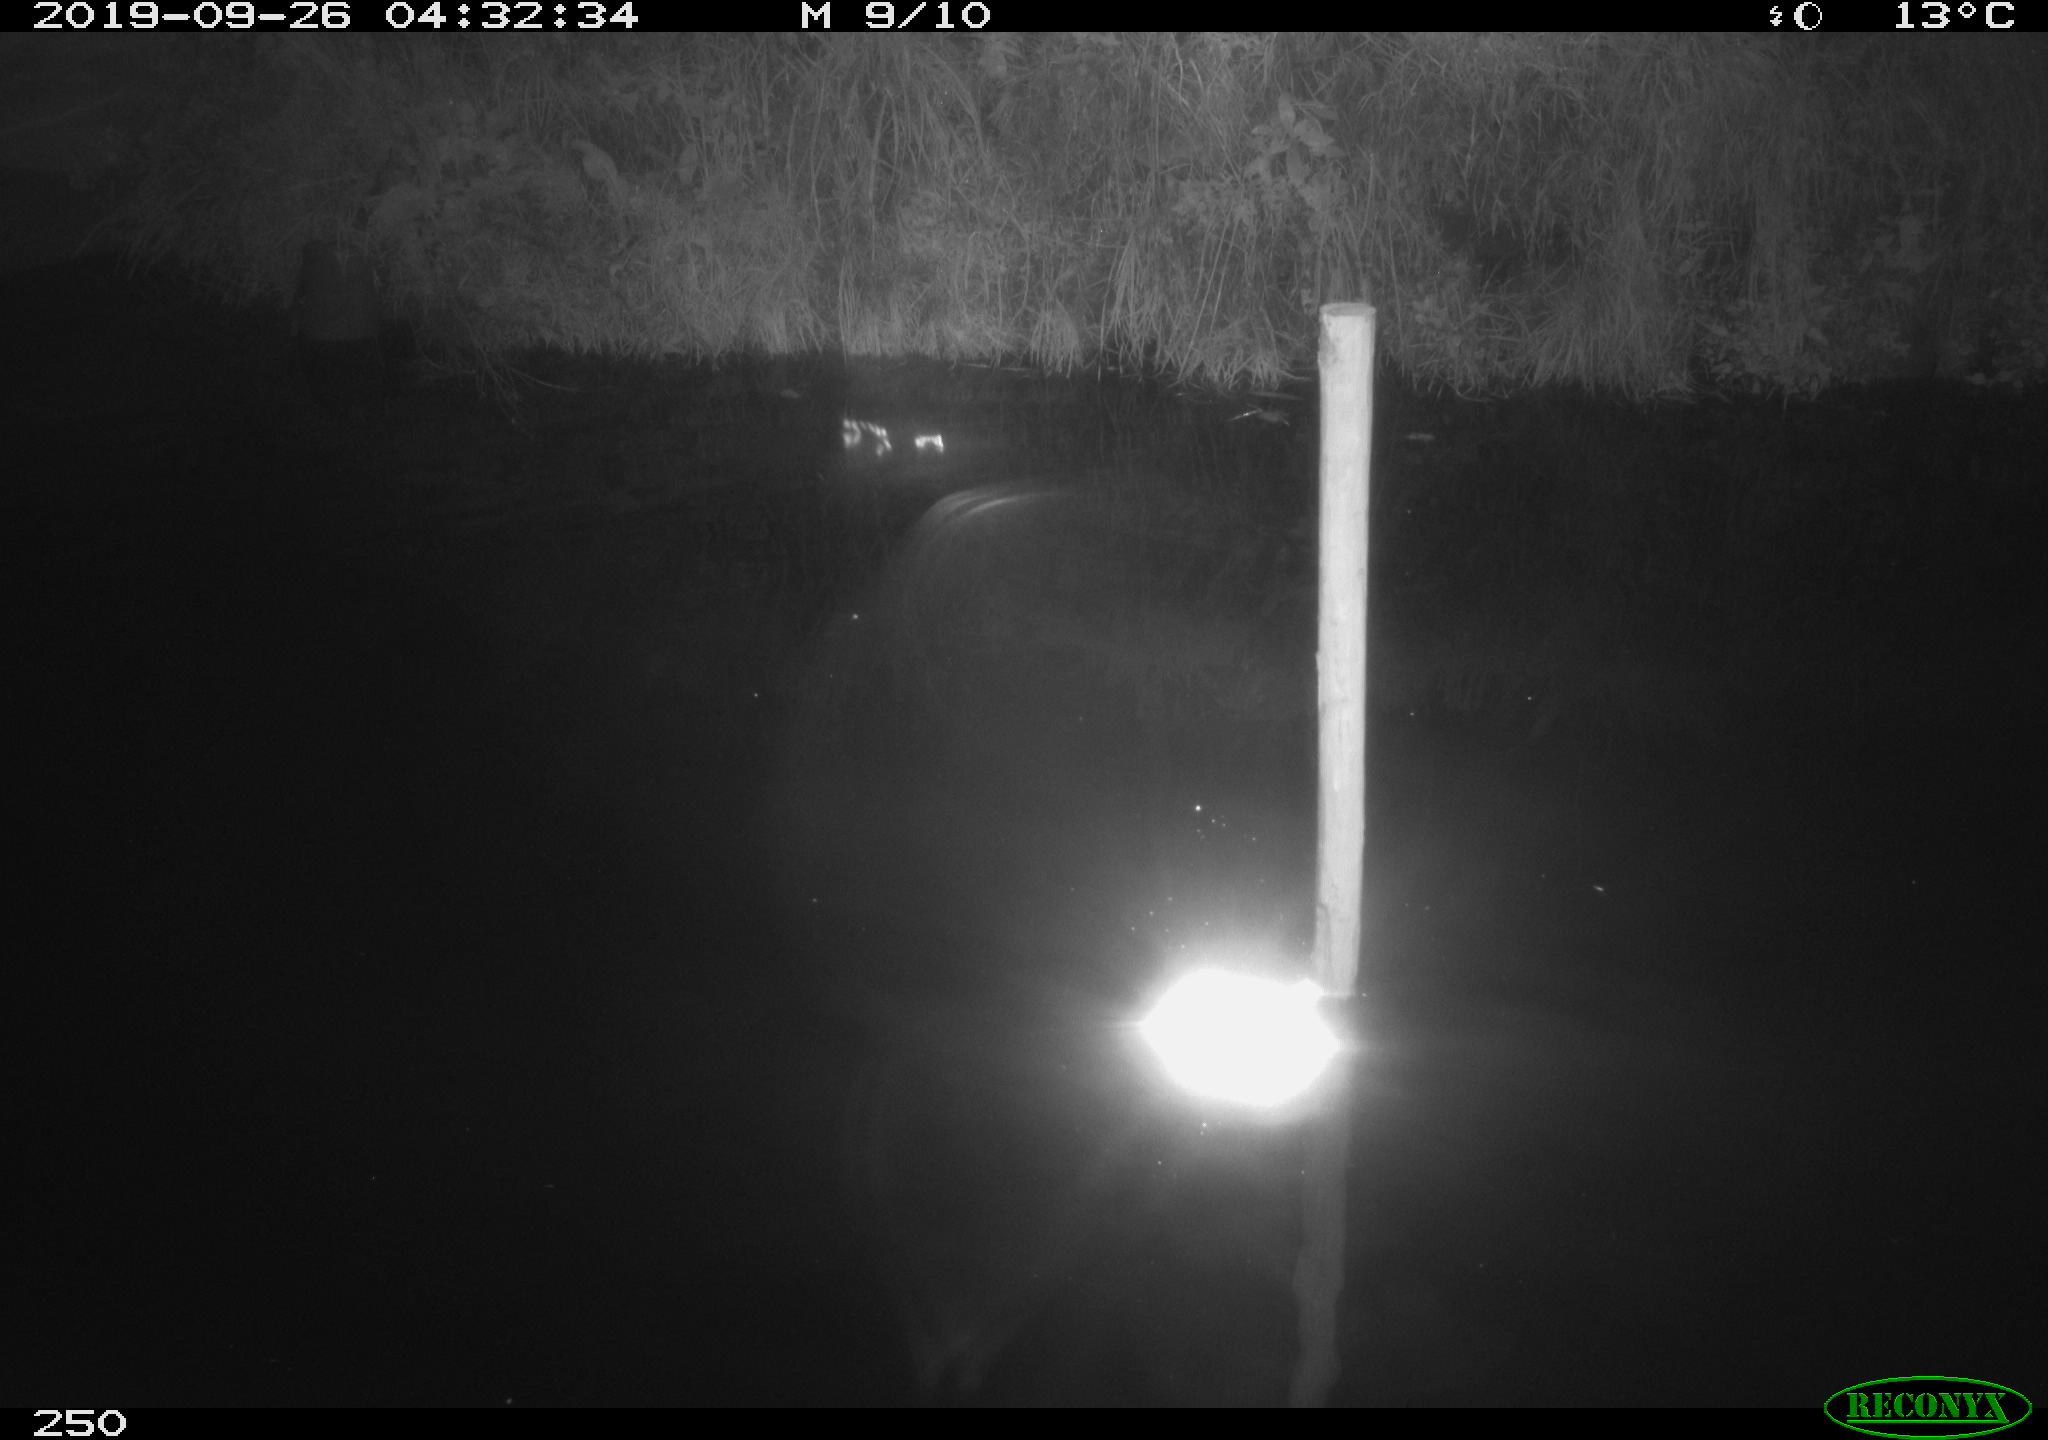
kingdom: Animalia
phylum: Chordata
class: Aves
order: Anseriformes
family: Anatidae
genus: Anas
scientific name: Anas platyrhynchos
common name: Mallard
